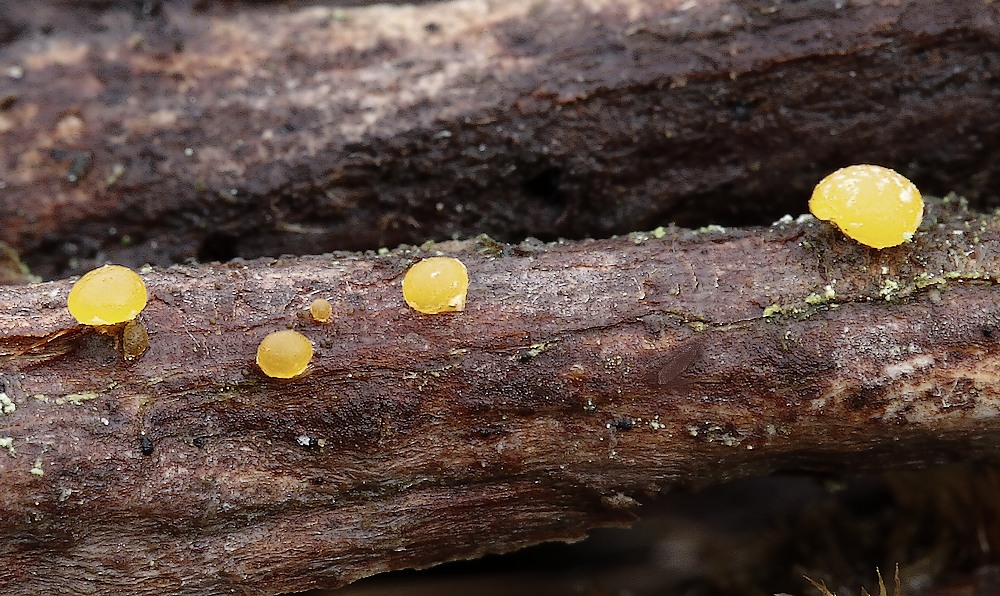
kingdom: Fungi
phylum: Basidiomycota
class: Dacrymycetes
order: Dacrymycetales
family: Dacrymycetaceae
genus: Dacrymyces
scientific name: Dacrymyces
